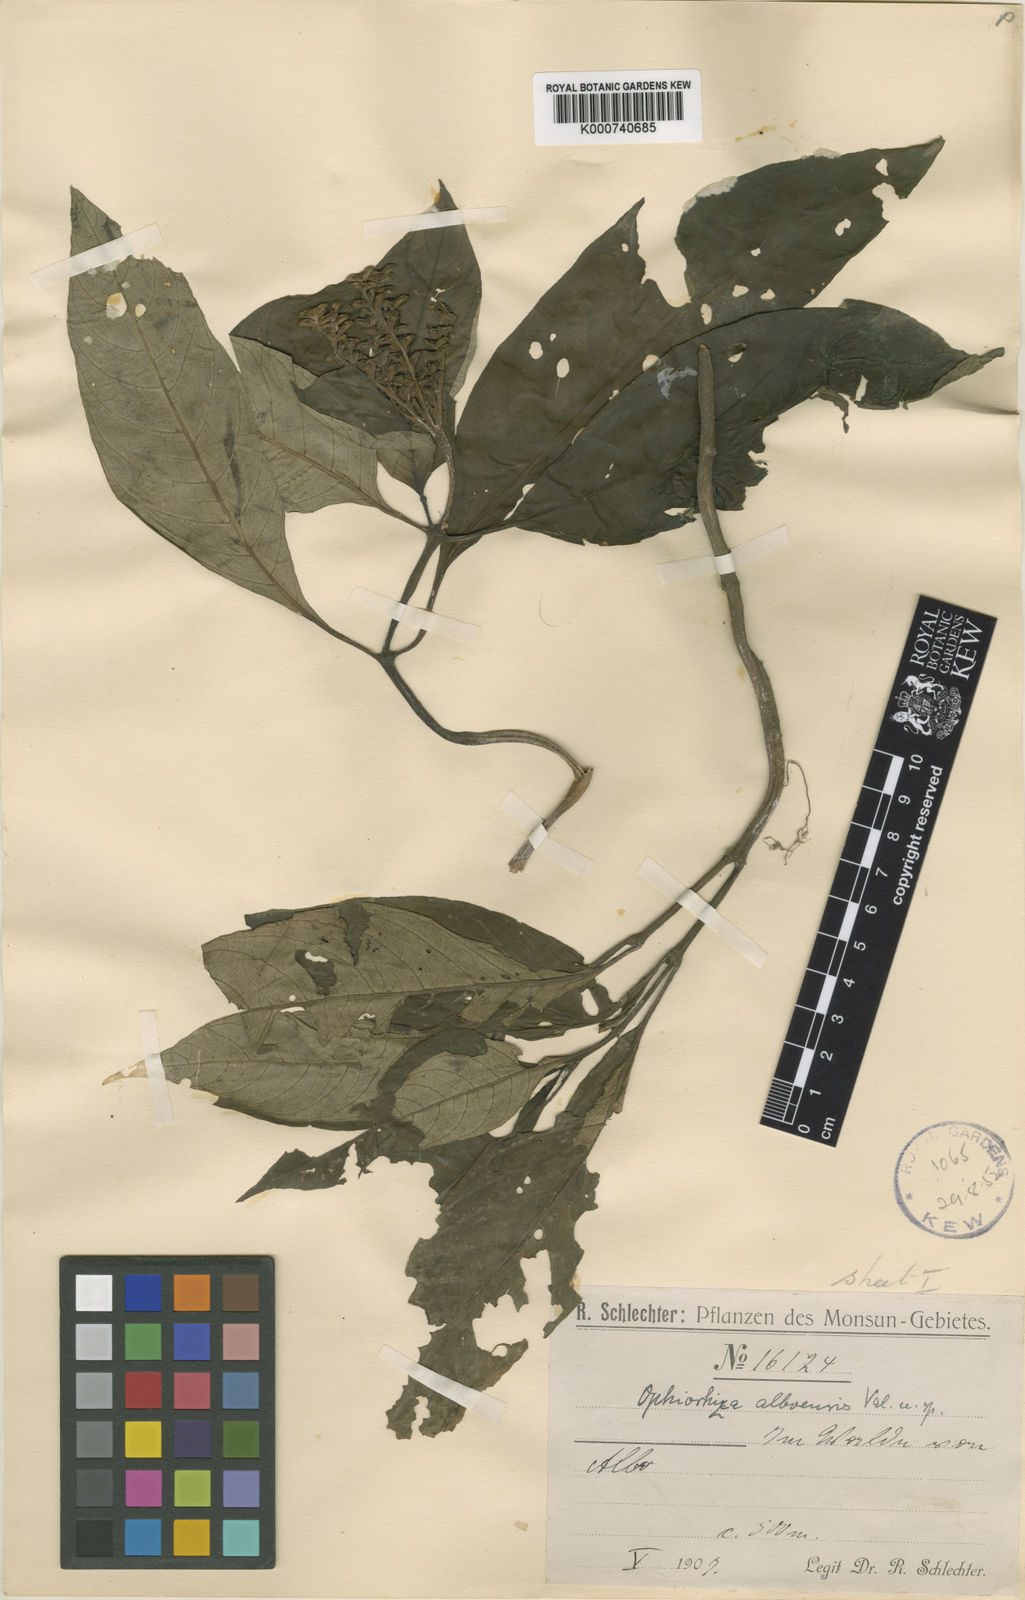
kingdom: Plantae
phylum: Tracheophyta
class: Magnoliopsida
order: Gentianales
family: Rubiaceae
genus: Ophiorrhiza
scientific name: Ophiorrhiza alboensis
